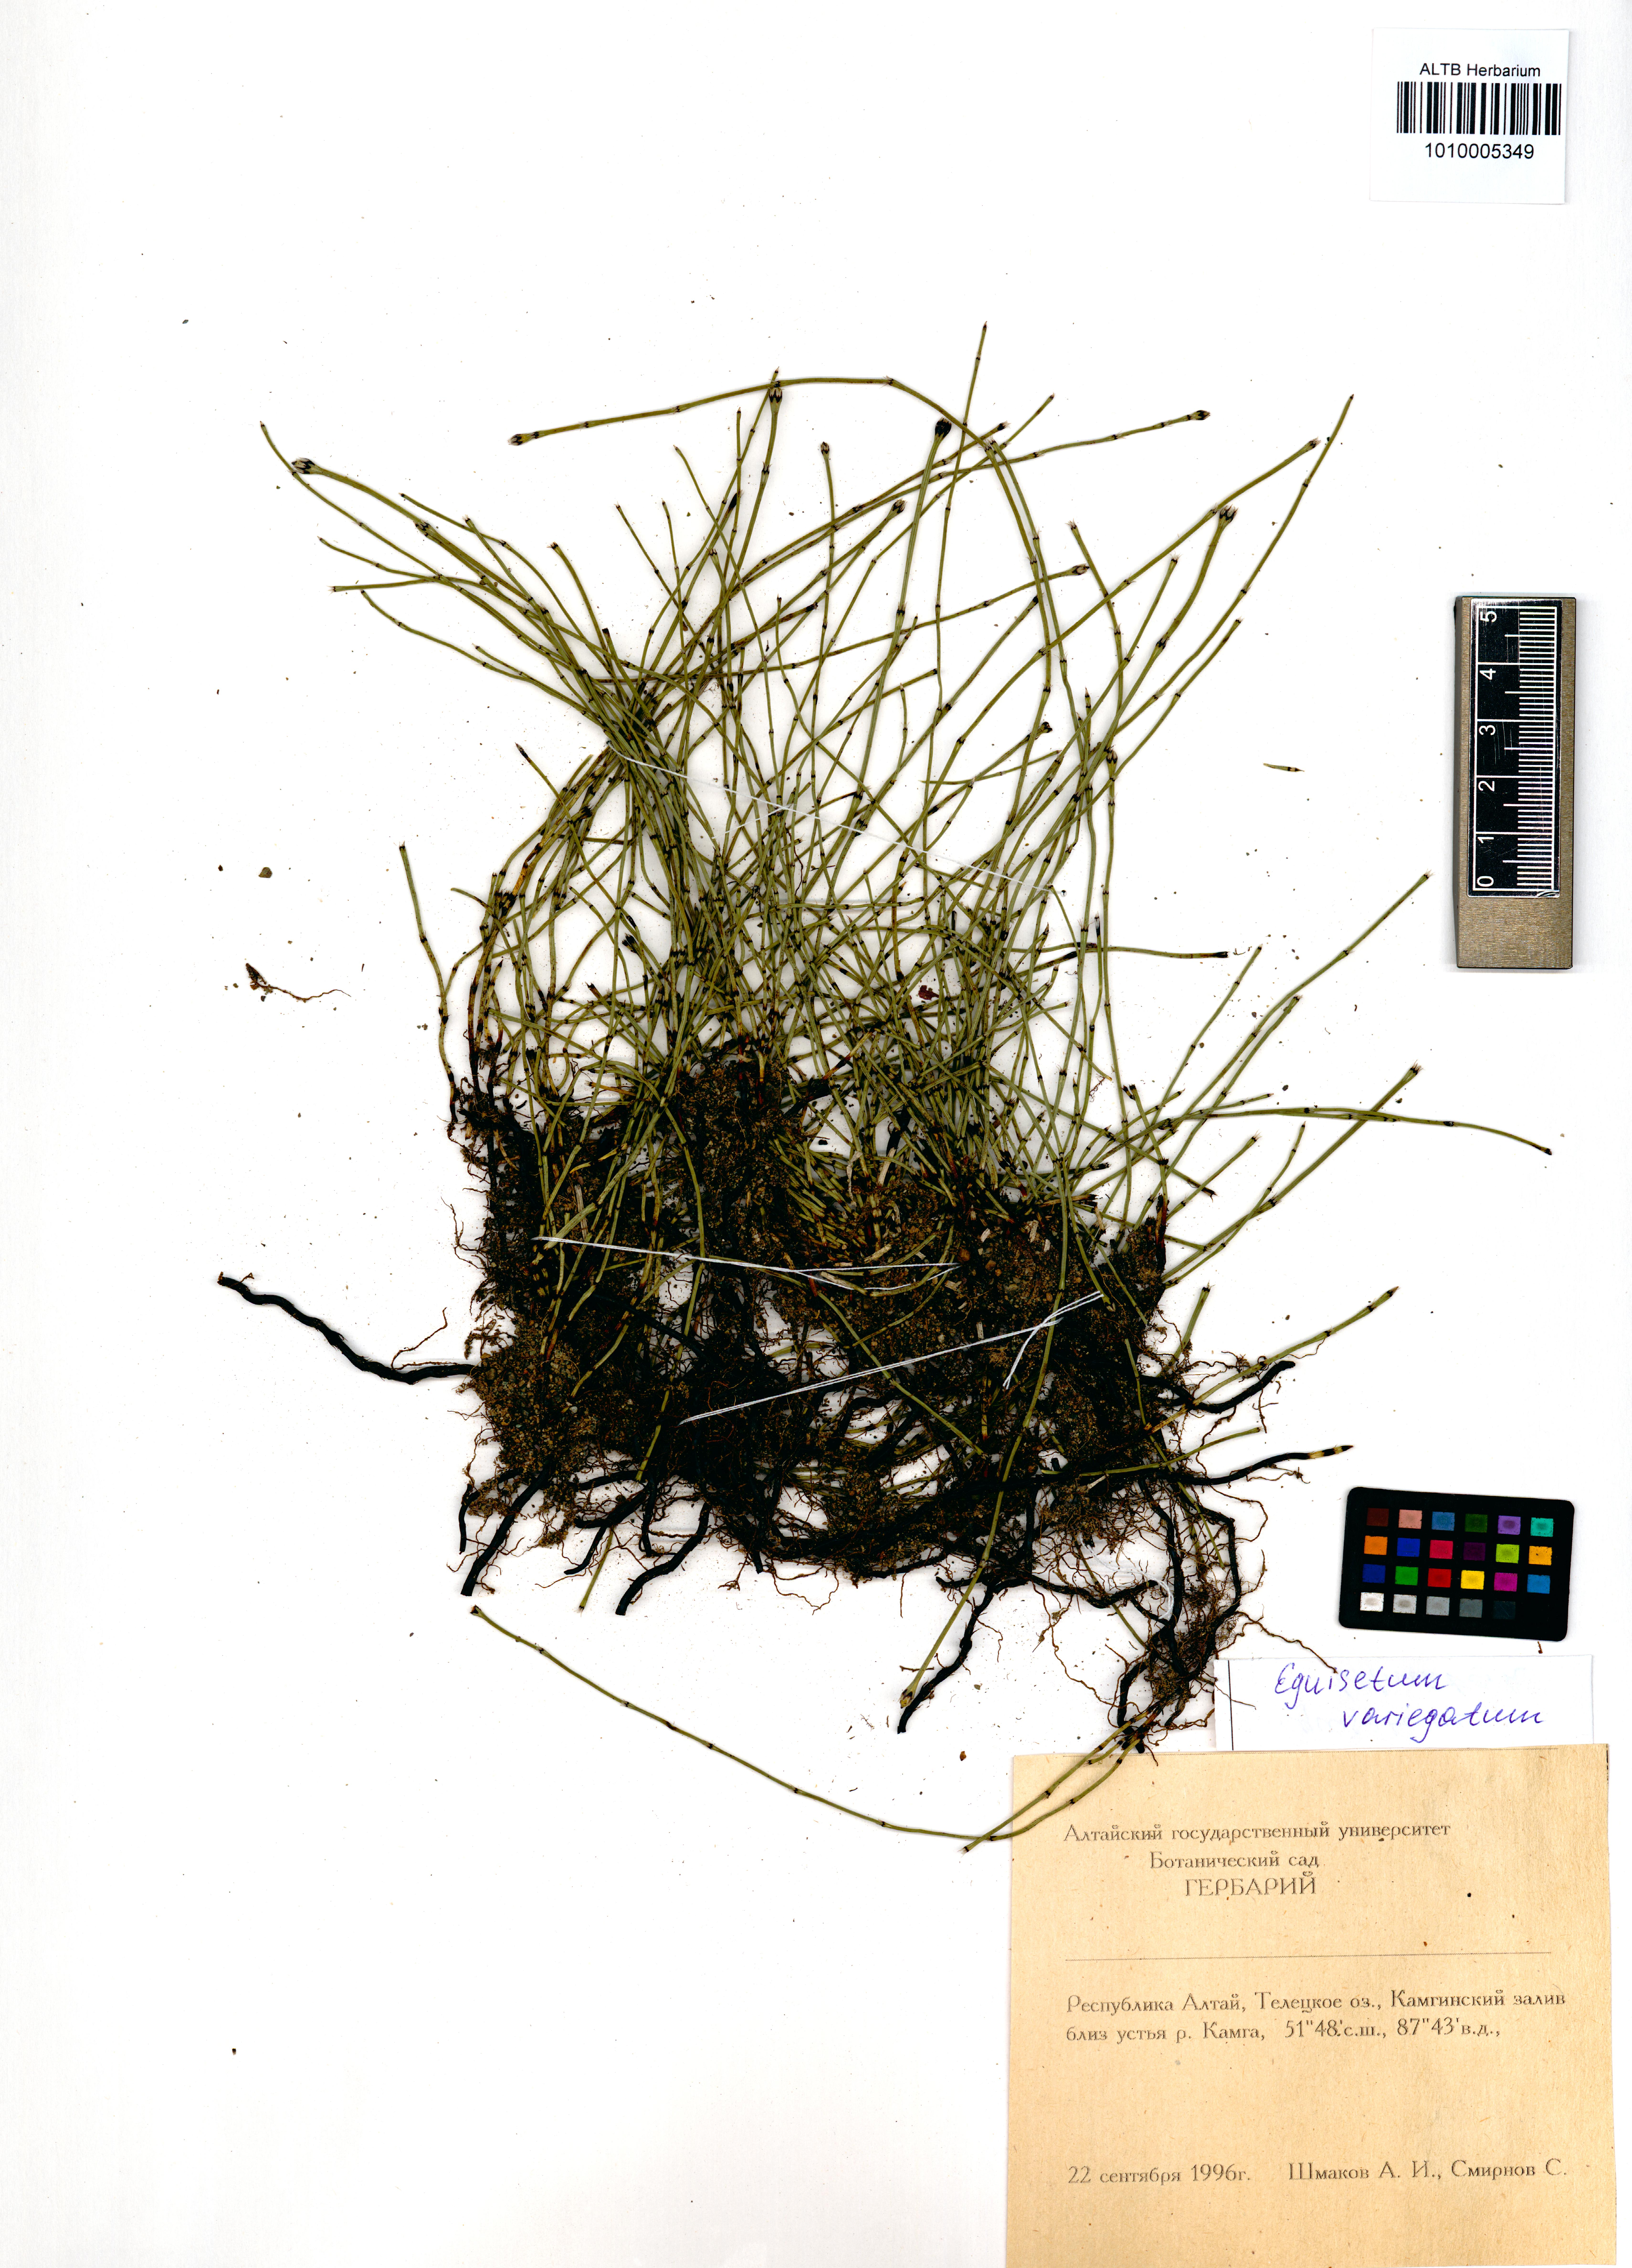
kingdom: Plantae
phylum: Tracheophyta
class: Polypodiopsida
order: Equisetales
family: Equisetaceae
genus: Equisetum
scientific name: Equisetum variegatum
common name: Variegated horsetail
